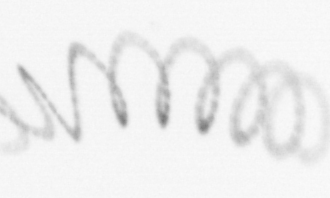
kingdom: Chromista
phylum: Ochrophyta
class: Bacillariophyceae
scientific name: Bacillariophyceae
